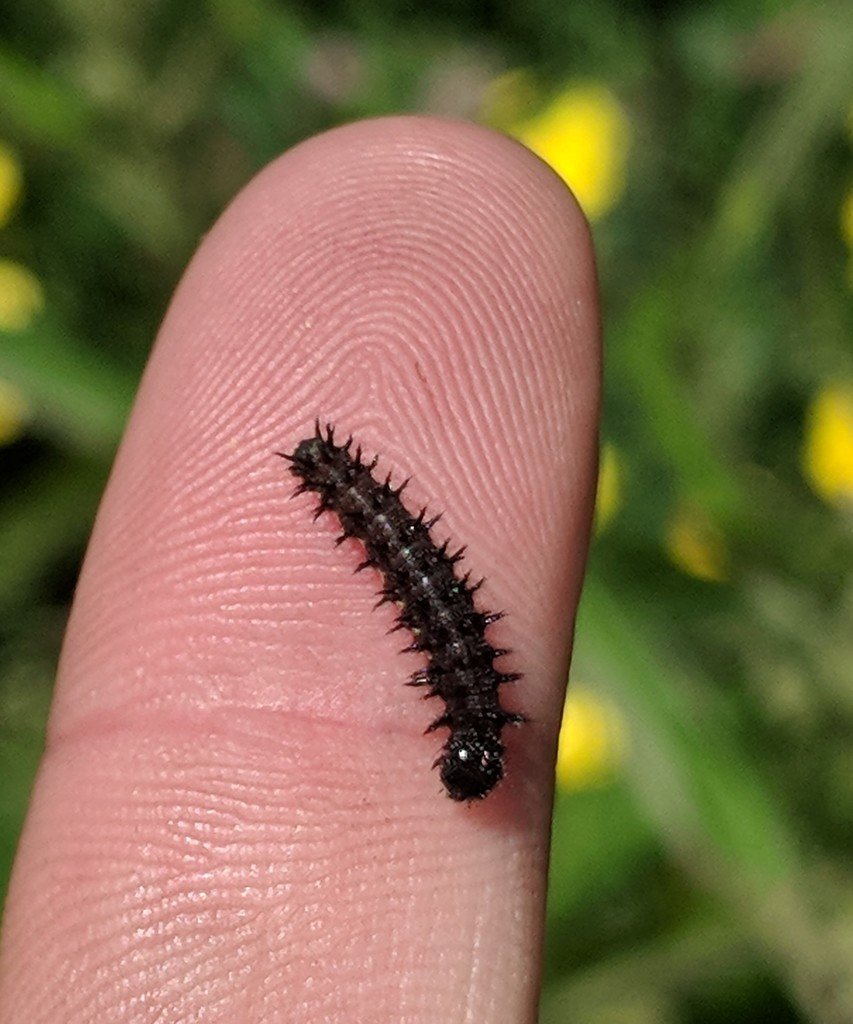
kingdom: Animalia
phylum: Arthropoda
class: Insecta
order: Lepidoptera
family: Nymphalidae
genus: Vanessa
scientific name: Vanessa atalanta
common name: Red Admiral
